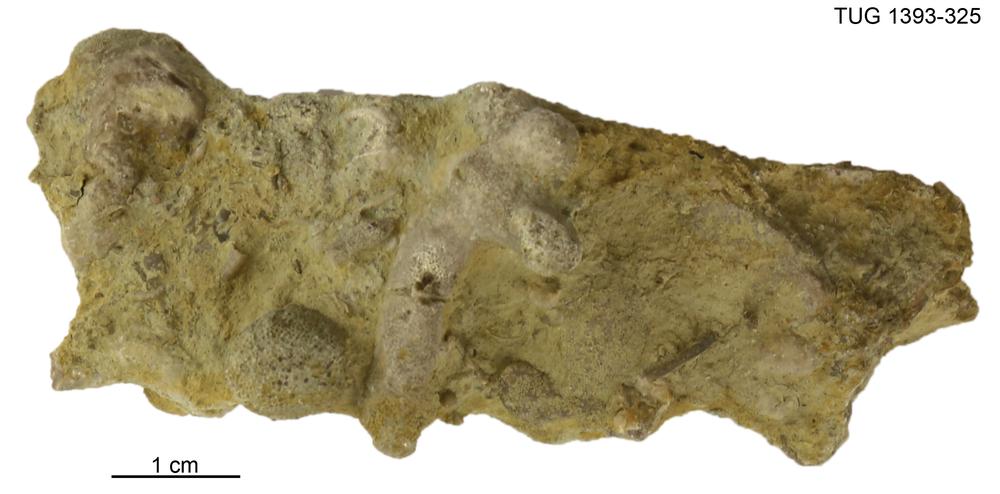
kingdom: Animalia
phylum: Bryozoa
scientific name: Bryozoa
